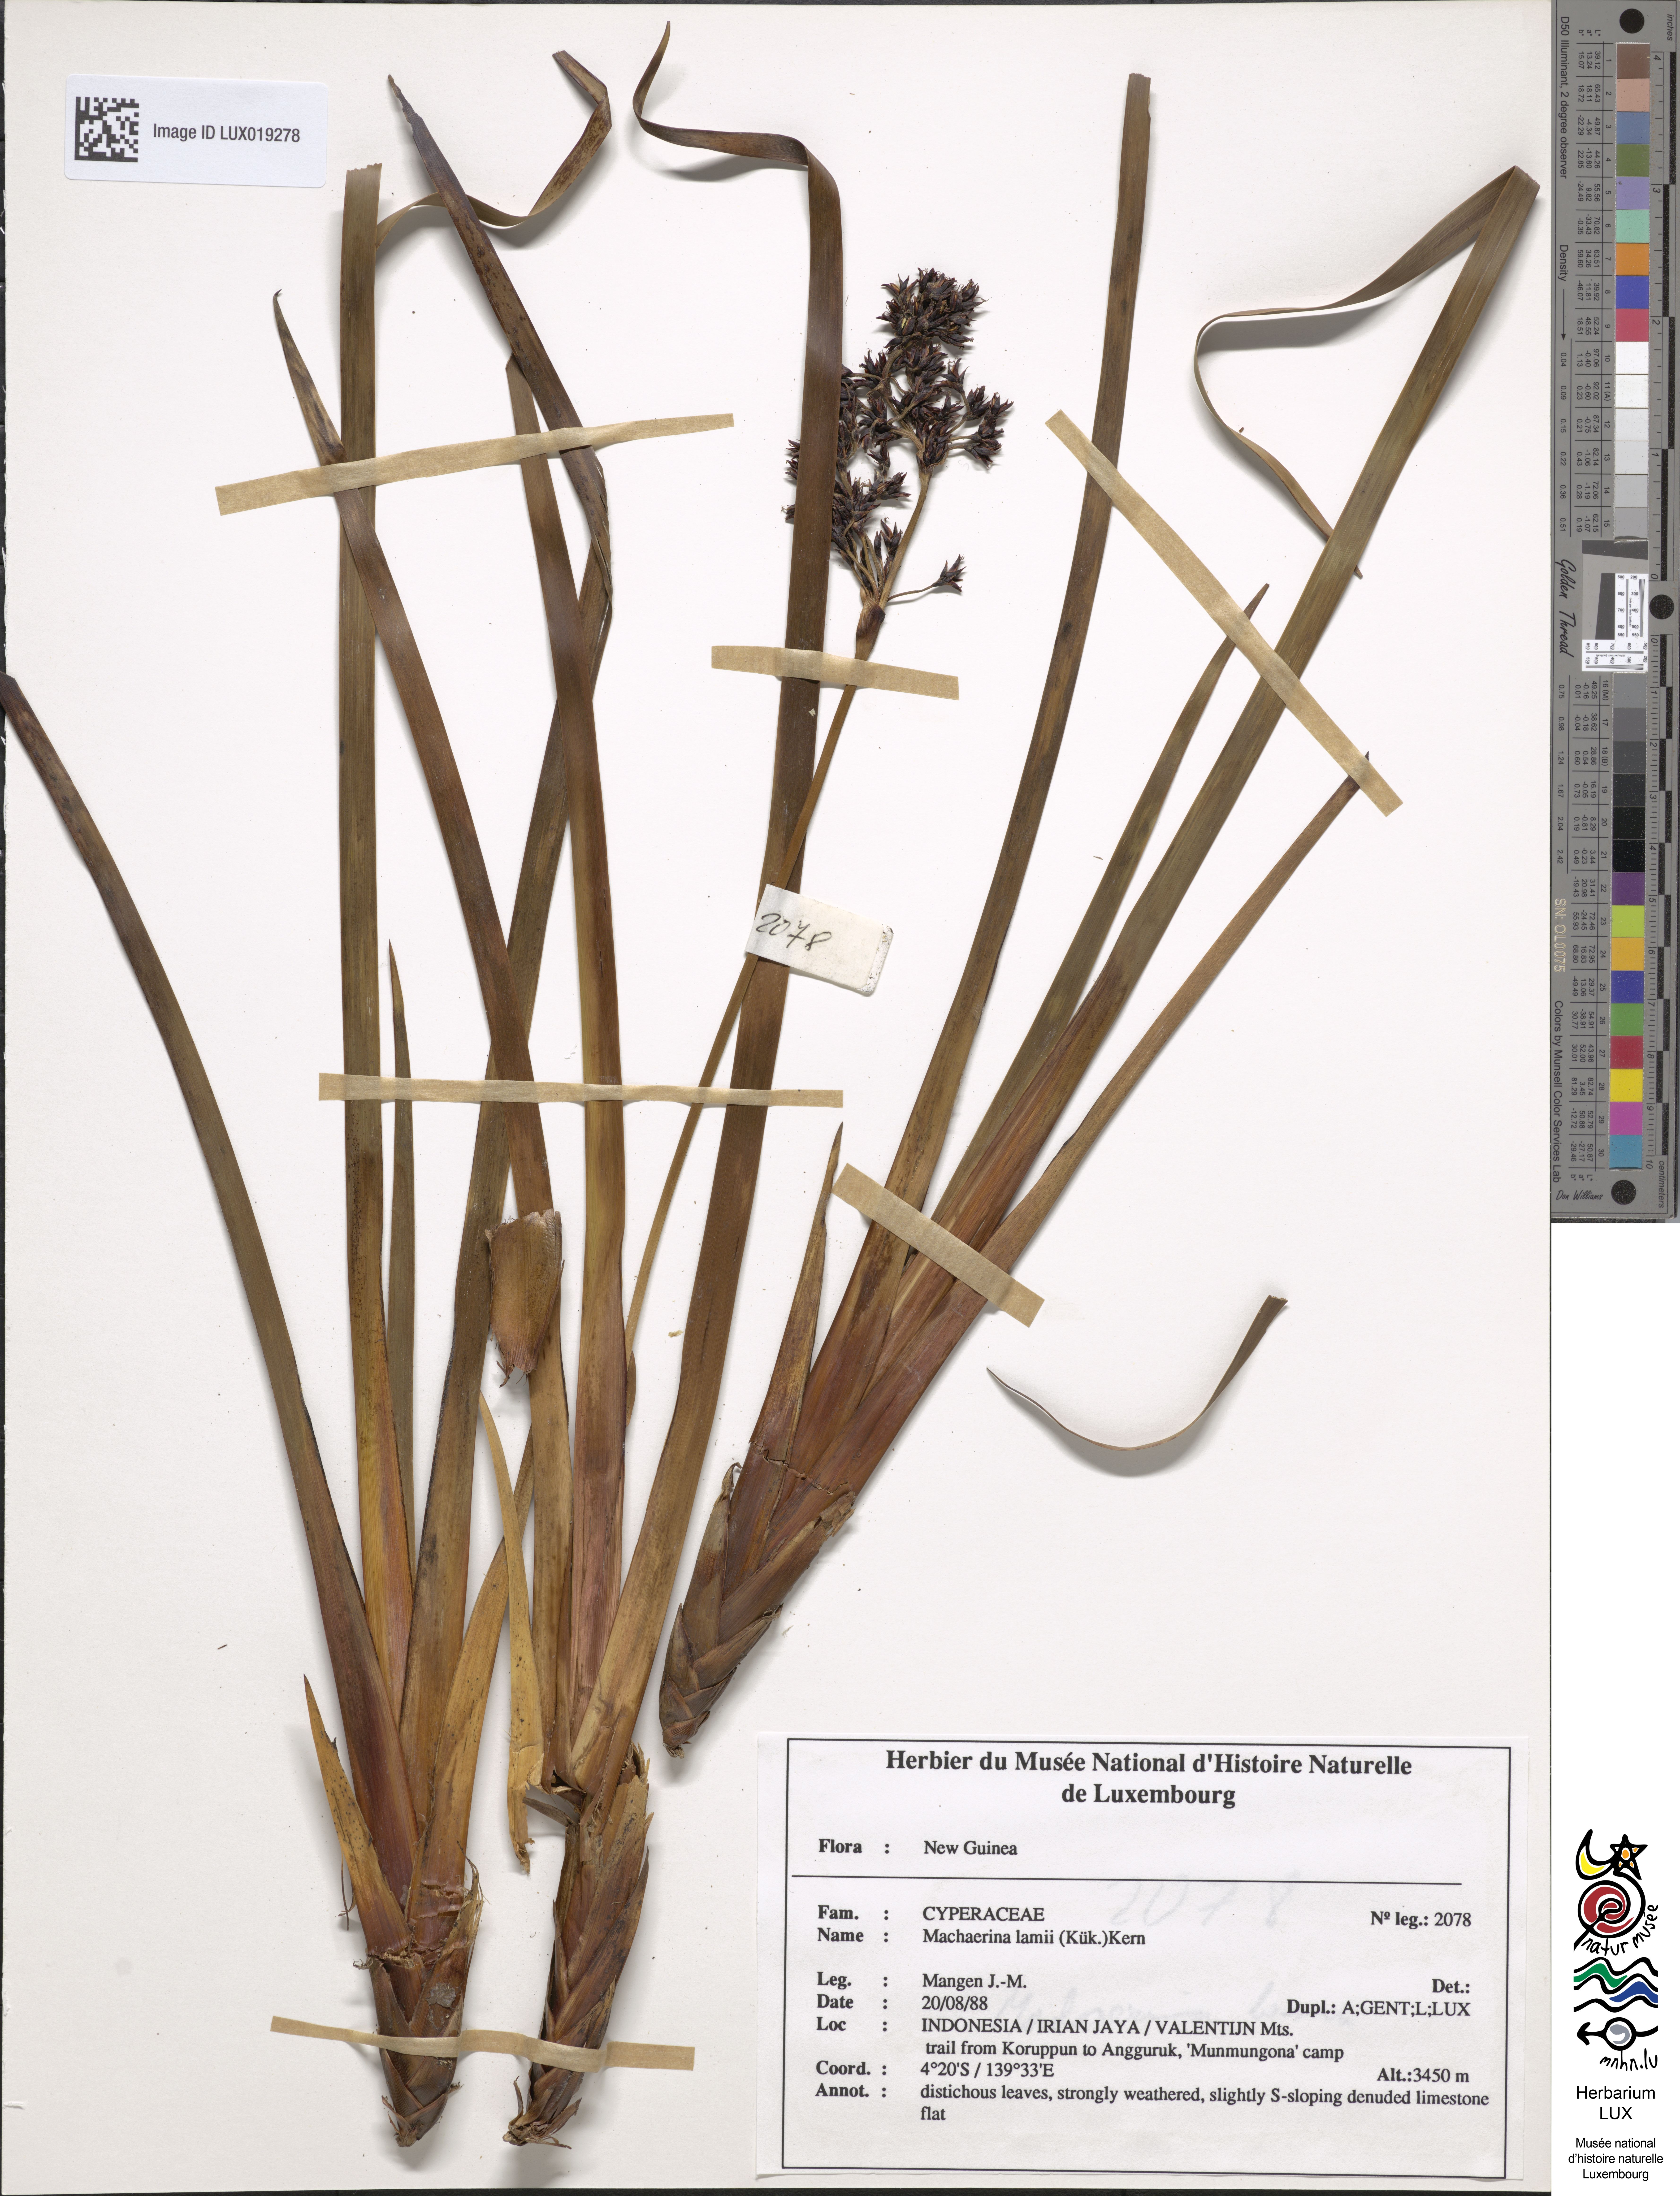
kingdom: Plantae
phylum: Tracheophyta
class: Liliopsida
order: Poales
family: Cyperaceae
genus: Machaerina
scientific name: Machaerina lamii
